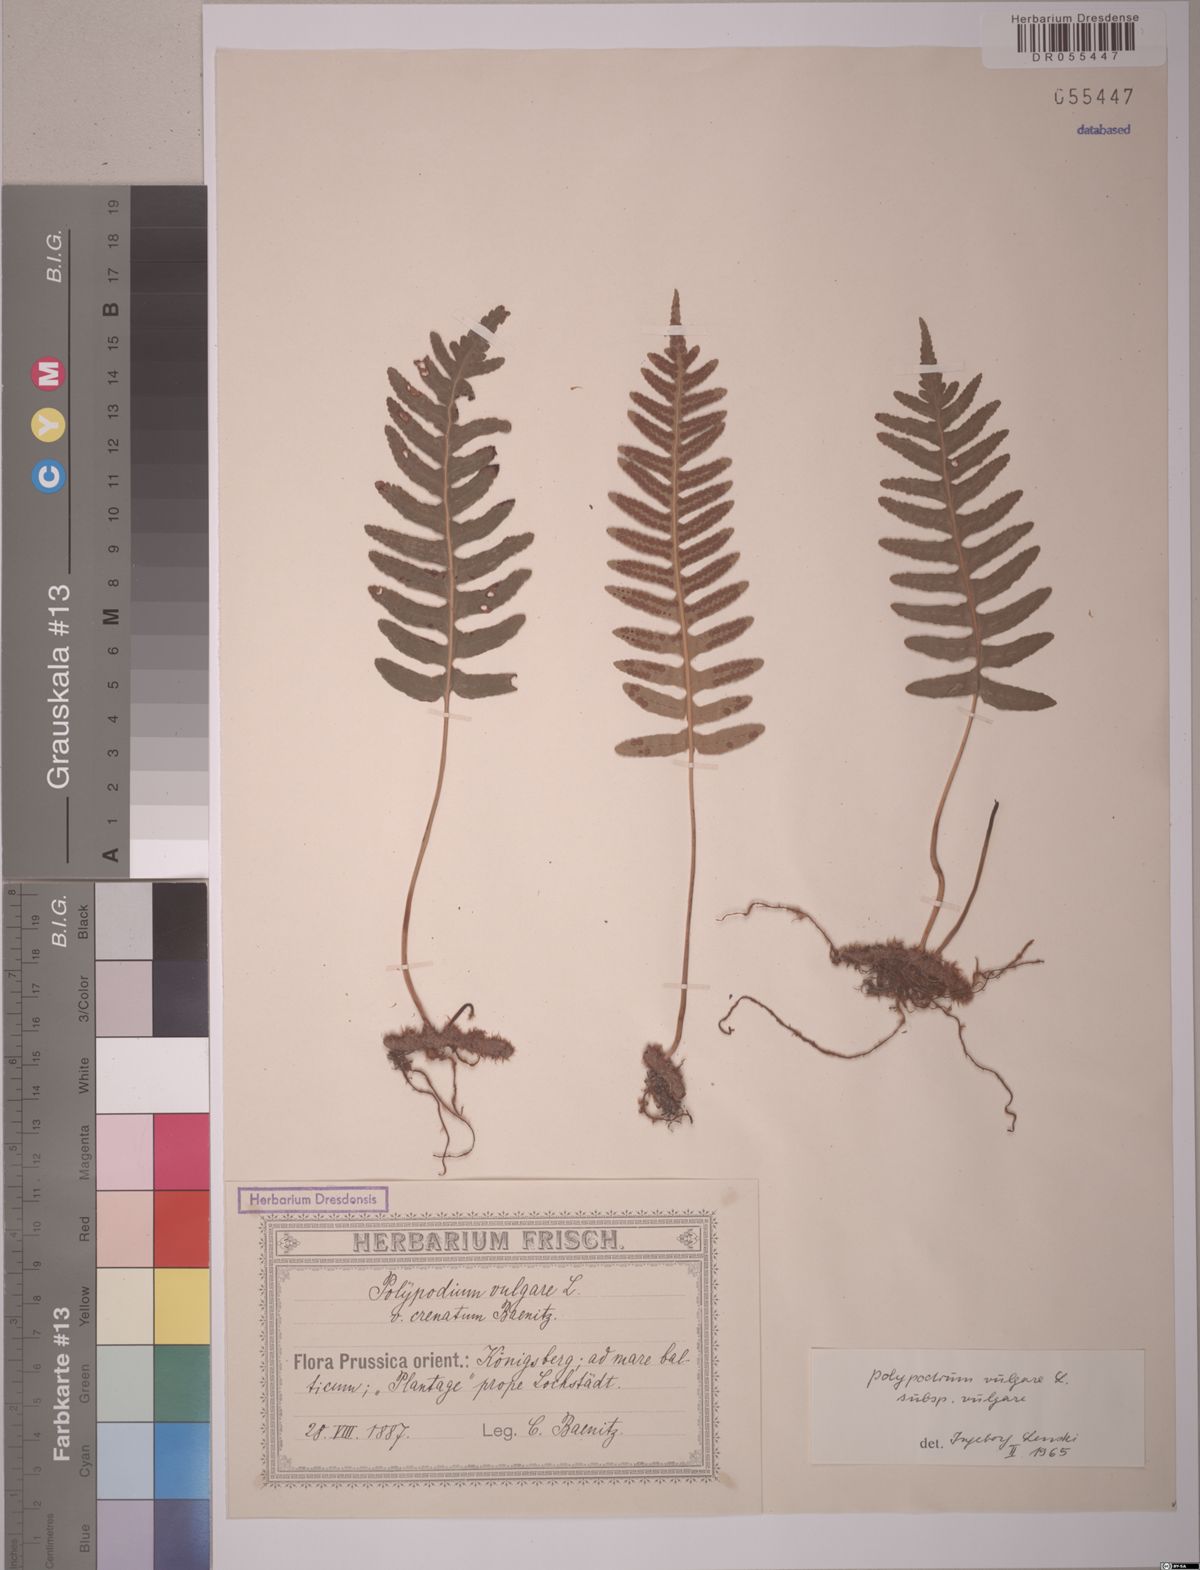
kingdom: Plantae
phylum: Tracheophyta
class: Polypodiopsida
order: Polypodiales
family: Polypodiaceae
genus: Polypodium
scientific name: Polypodium vulgare
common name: Common polypody
